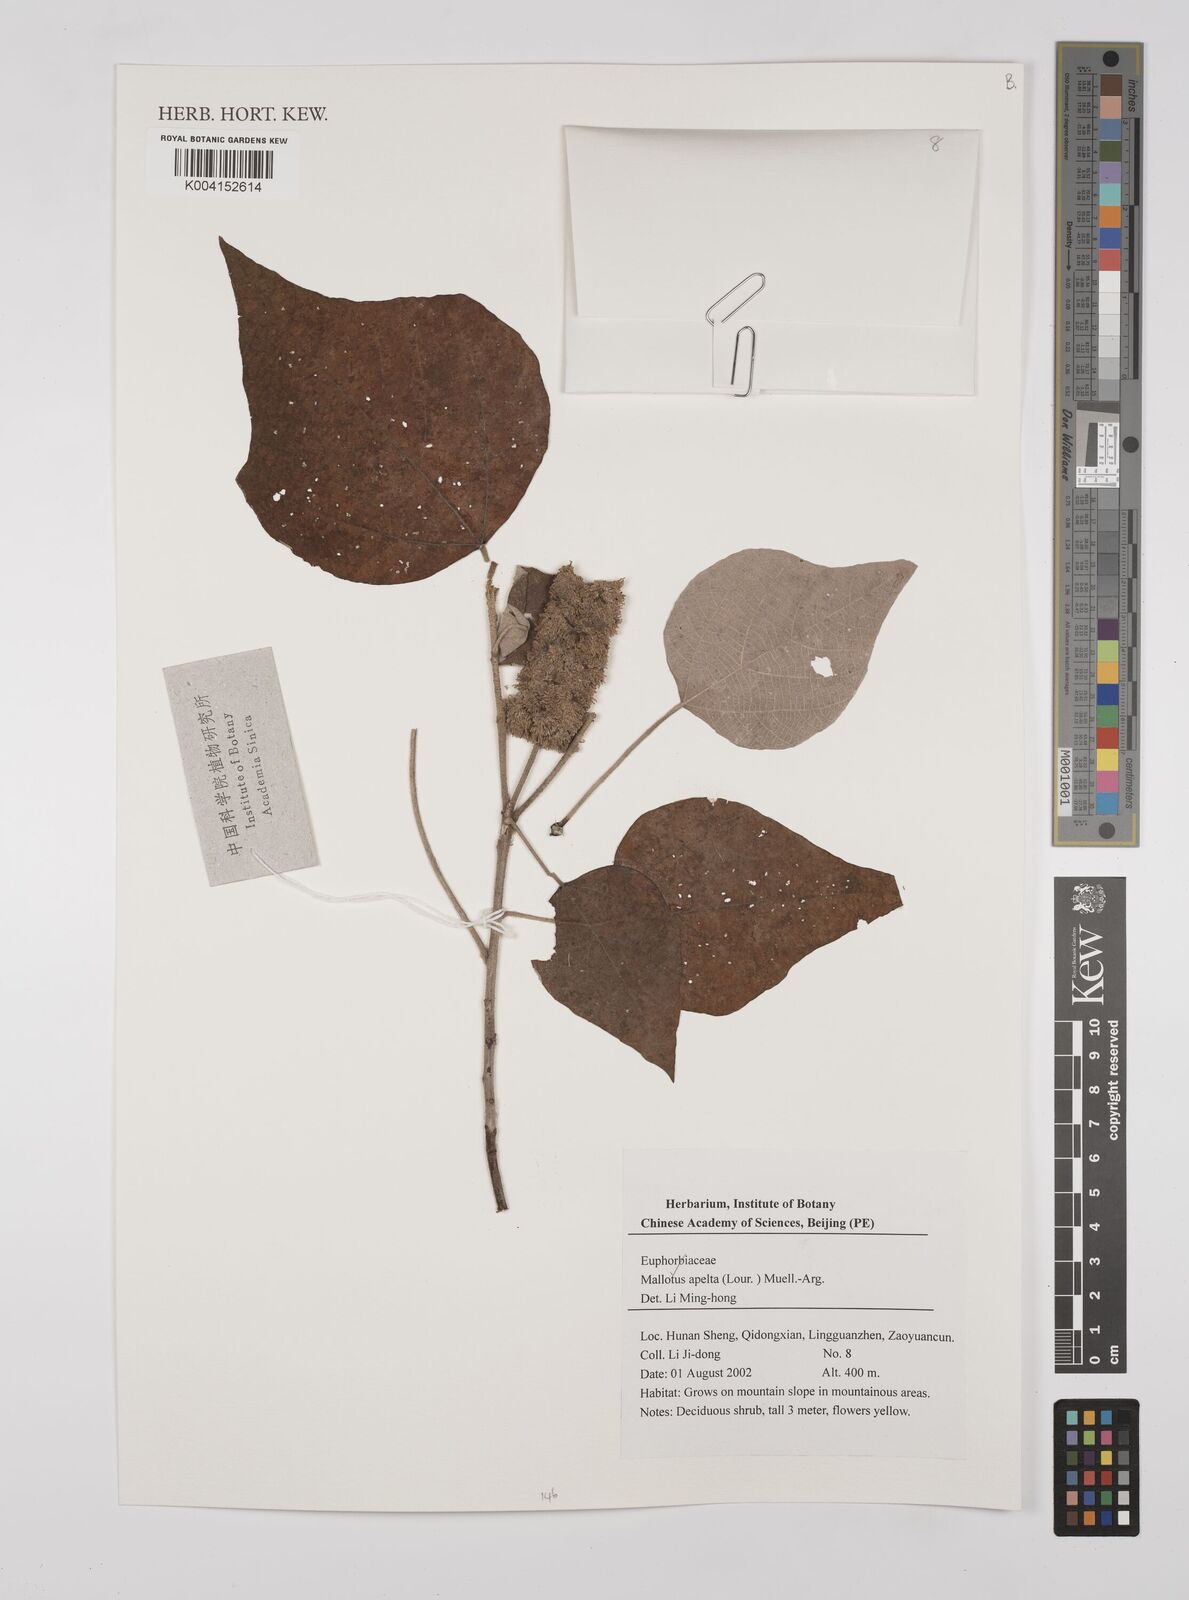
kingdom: Plantae
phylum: Tracheophyta
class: Magnoliopsida
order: Malpighiales
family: Euphorbiaceae
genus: Mallotus
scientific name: Mallotus apelta
